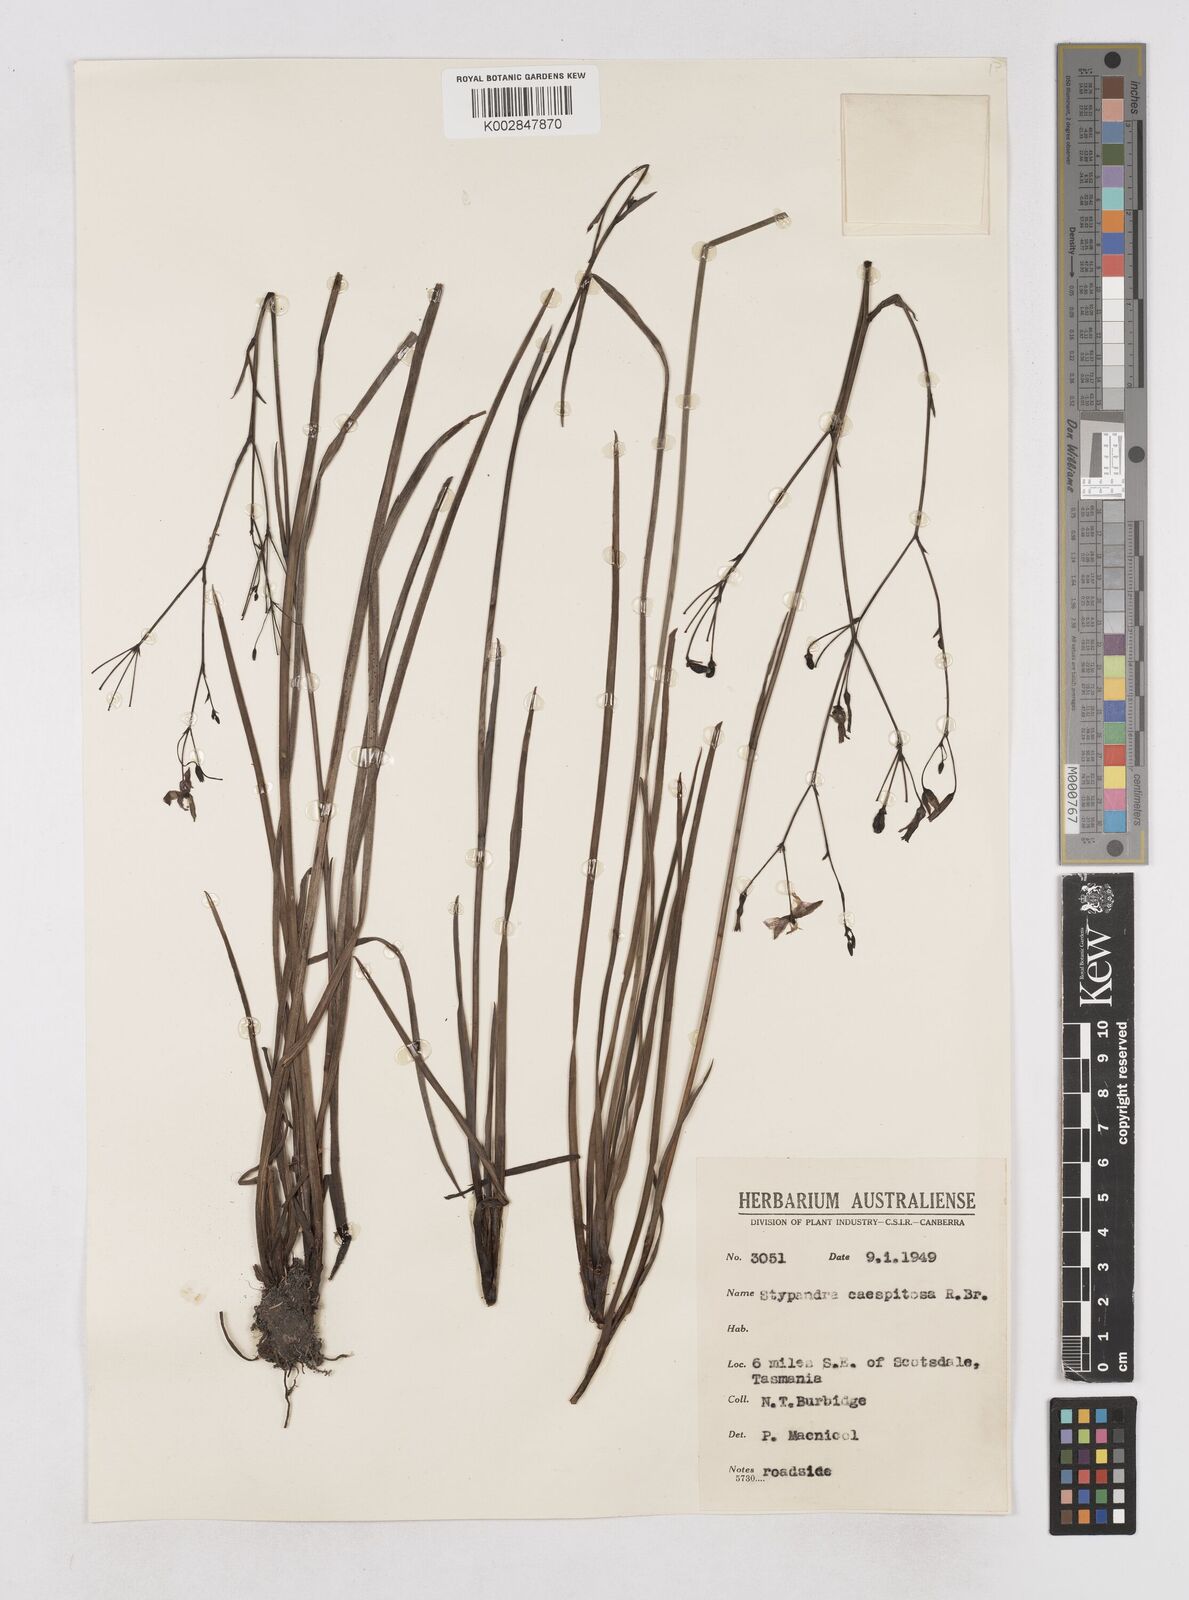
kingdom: Plantae
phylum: Tracheophyta
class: Liliopsida
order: Asparagales
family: Asphodelaceae
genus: Thelionema
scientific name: Thelionema caespitosum
